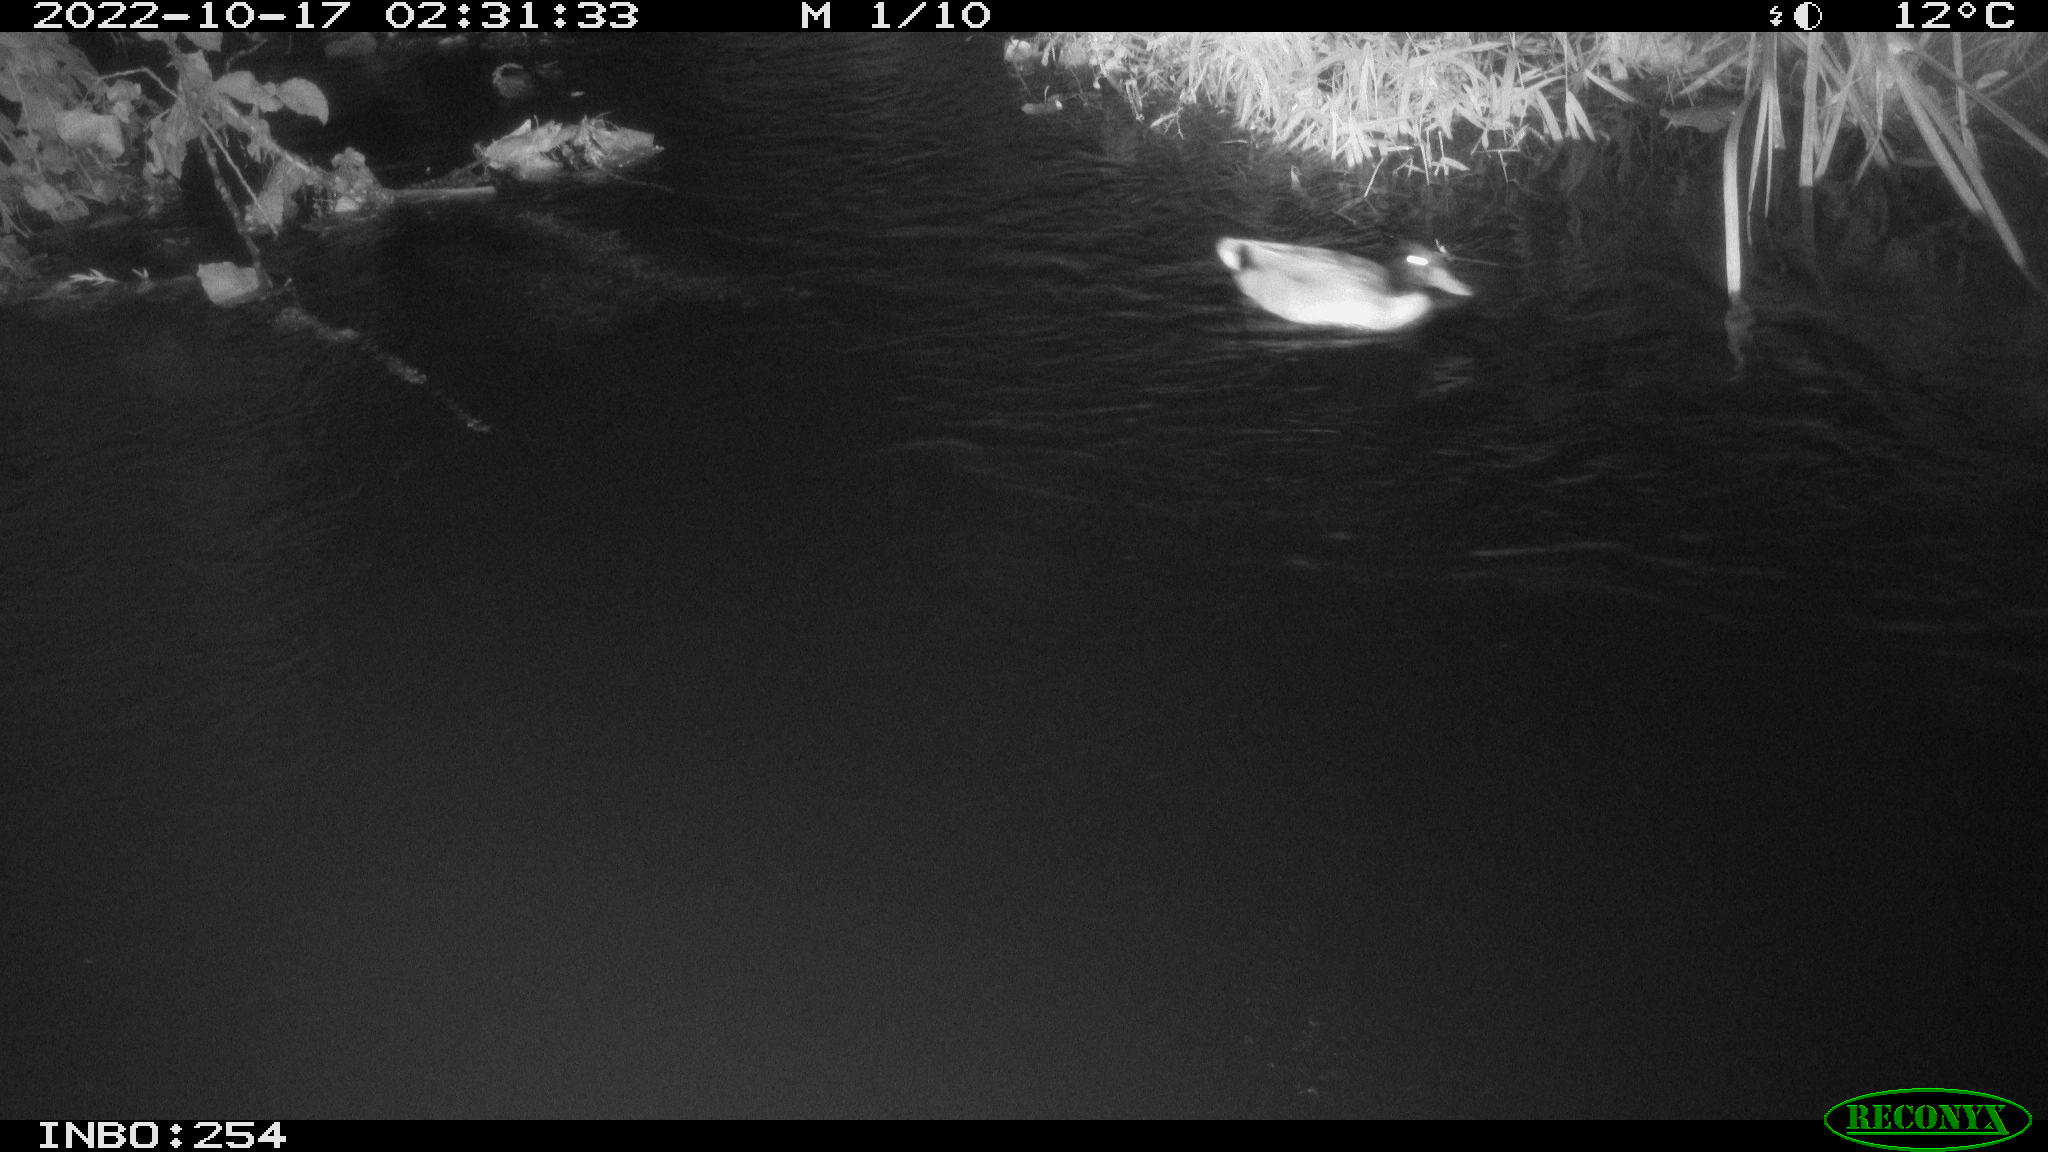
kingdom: Animalia
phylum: Chordata
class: Aves
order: Anseriformes
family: Anatidae
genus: Anas
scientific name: Anas
